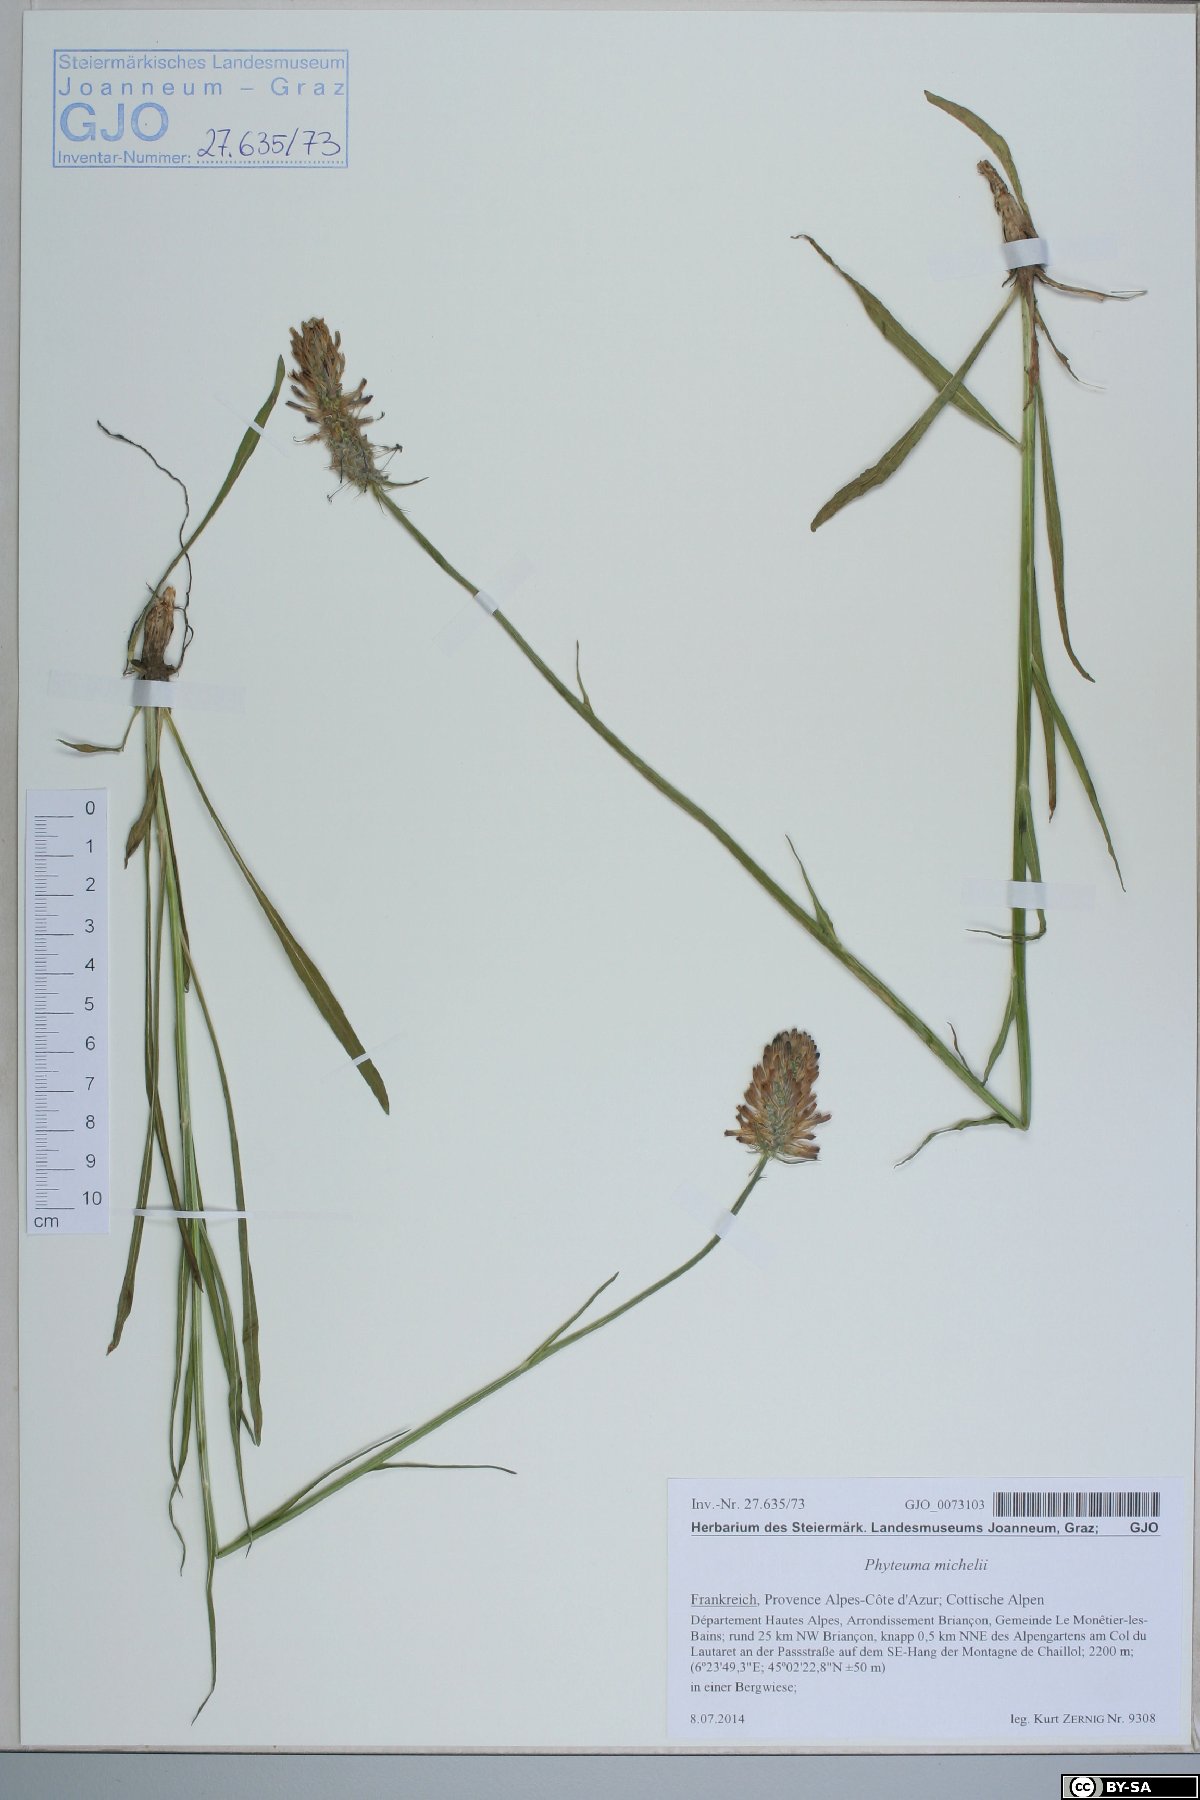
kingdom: Plantae
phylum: Tracheophyta
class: Magnoliopsida
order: Asterales
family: Campanulaceae
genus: Phyteuma
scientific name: Phyteuma michelii
